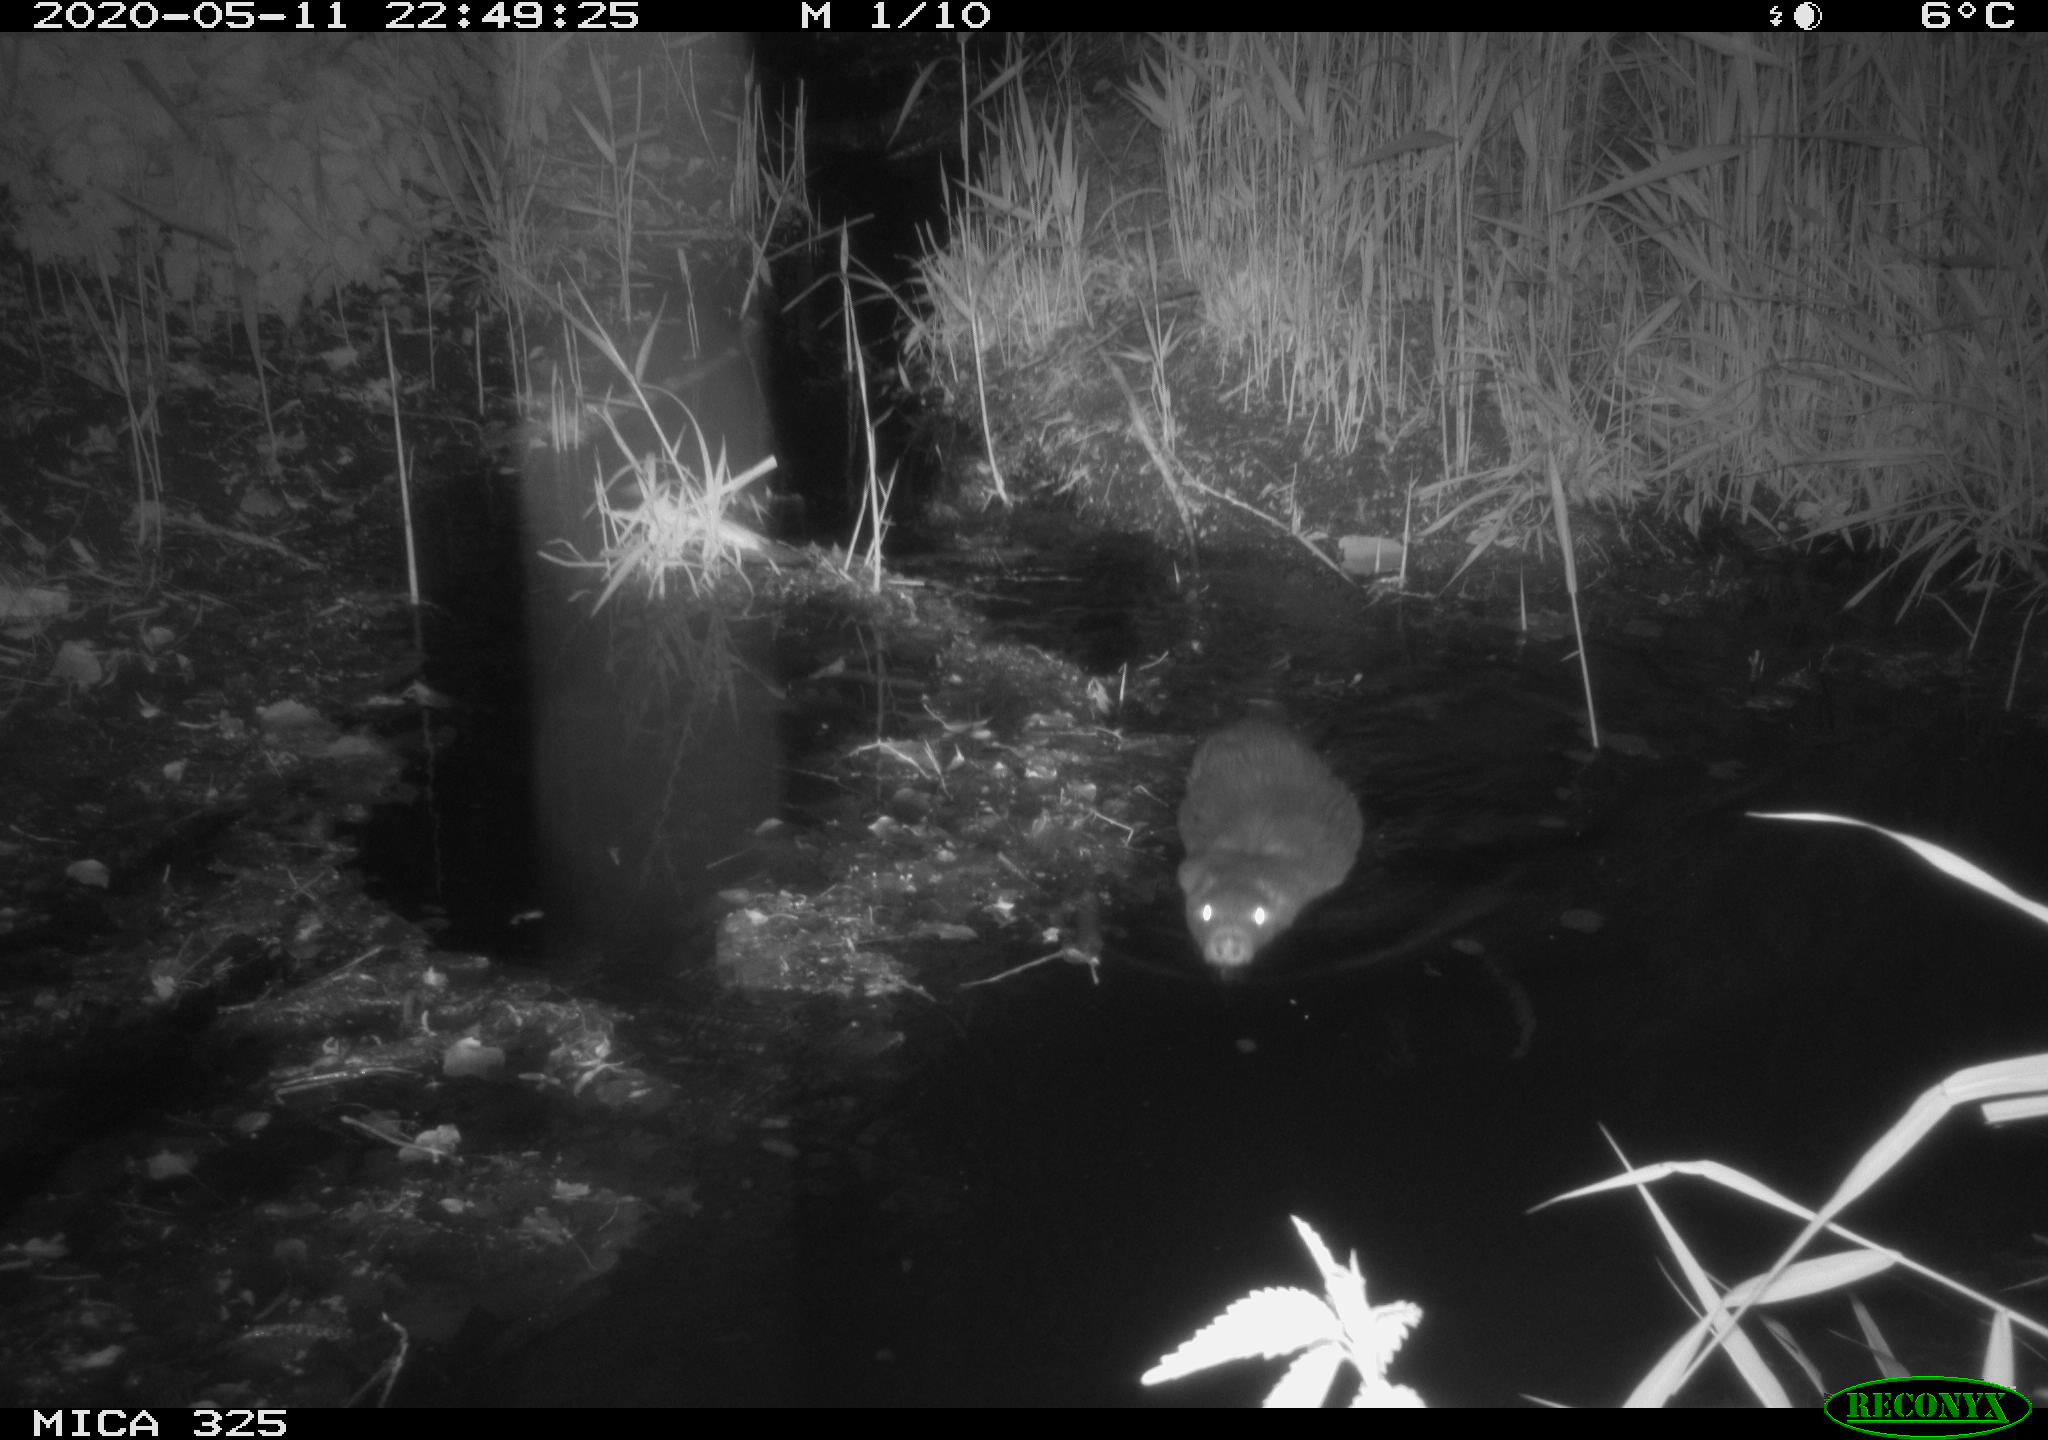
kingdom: Animalia
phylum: Chordata
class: Mammalia
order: Rodentia
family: Myocastoridae
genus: Myocastor
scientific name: Myocastor coypus
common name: Coypu
